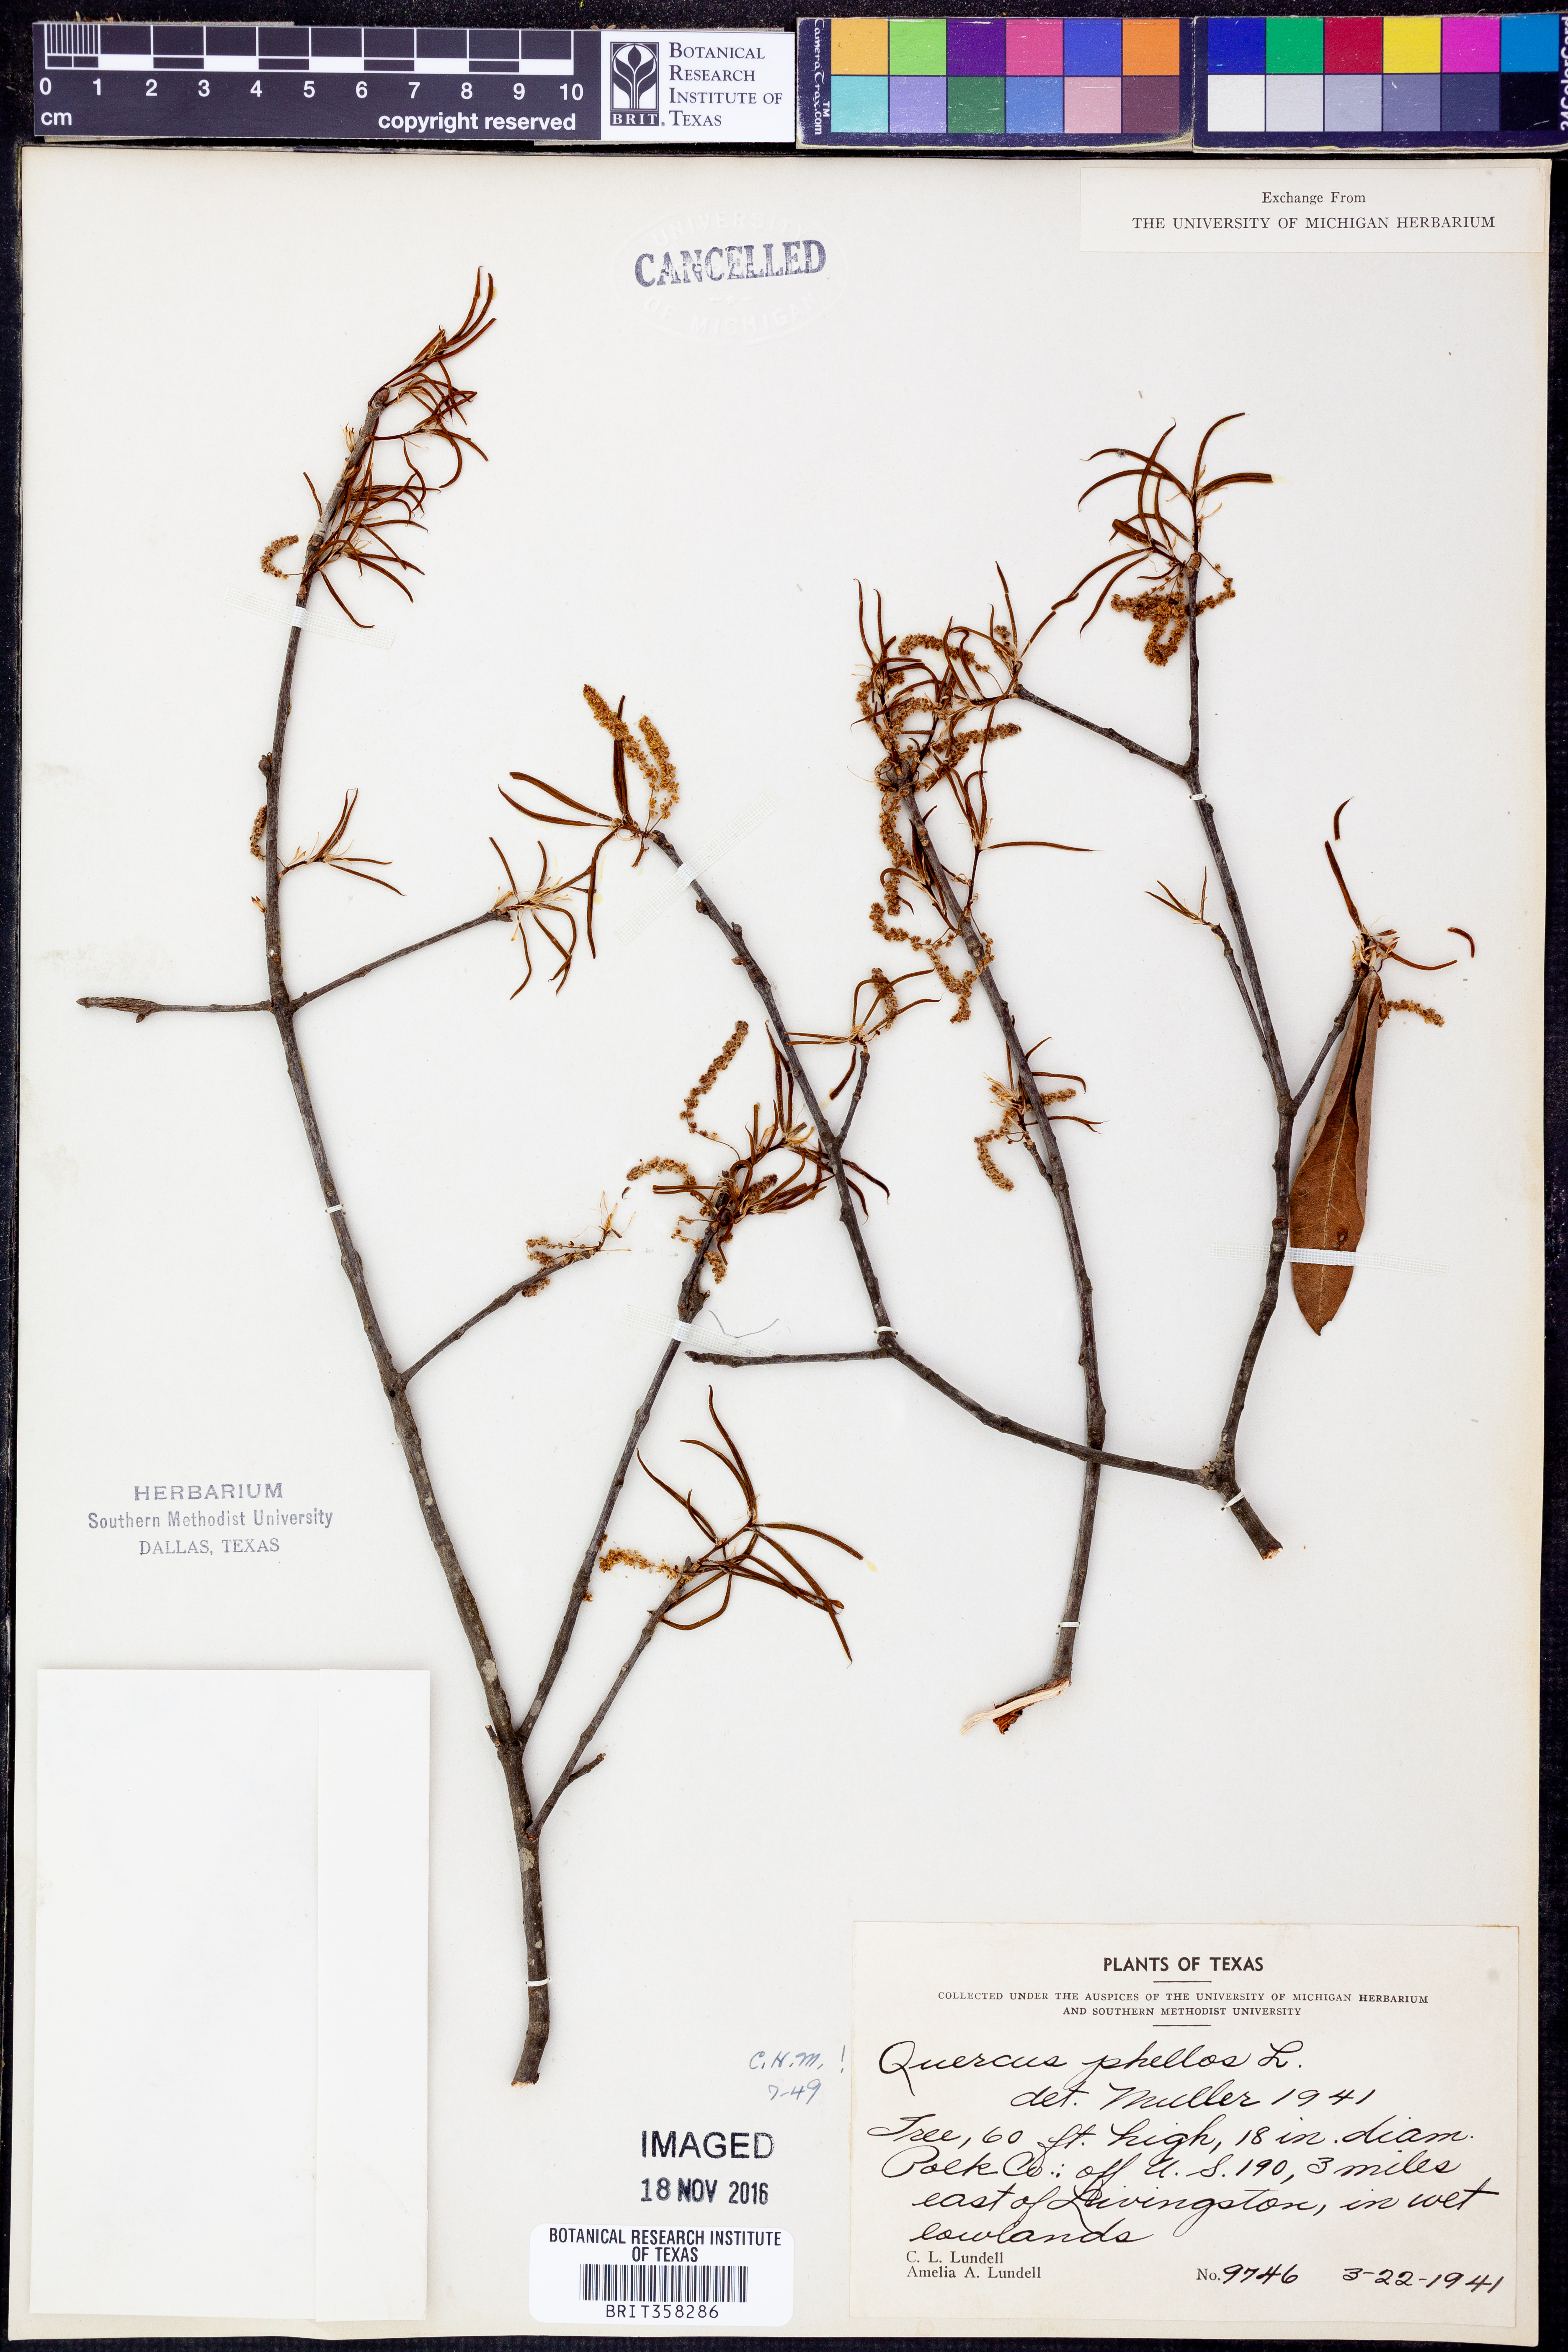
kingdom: Plantae
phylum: Tracheophyta
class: Magnoliopsida
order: Fagales
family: Fagaceae
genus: Quercus
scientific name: Quercus phellos
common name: Willow oak
